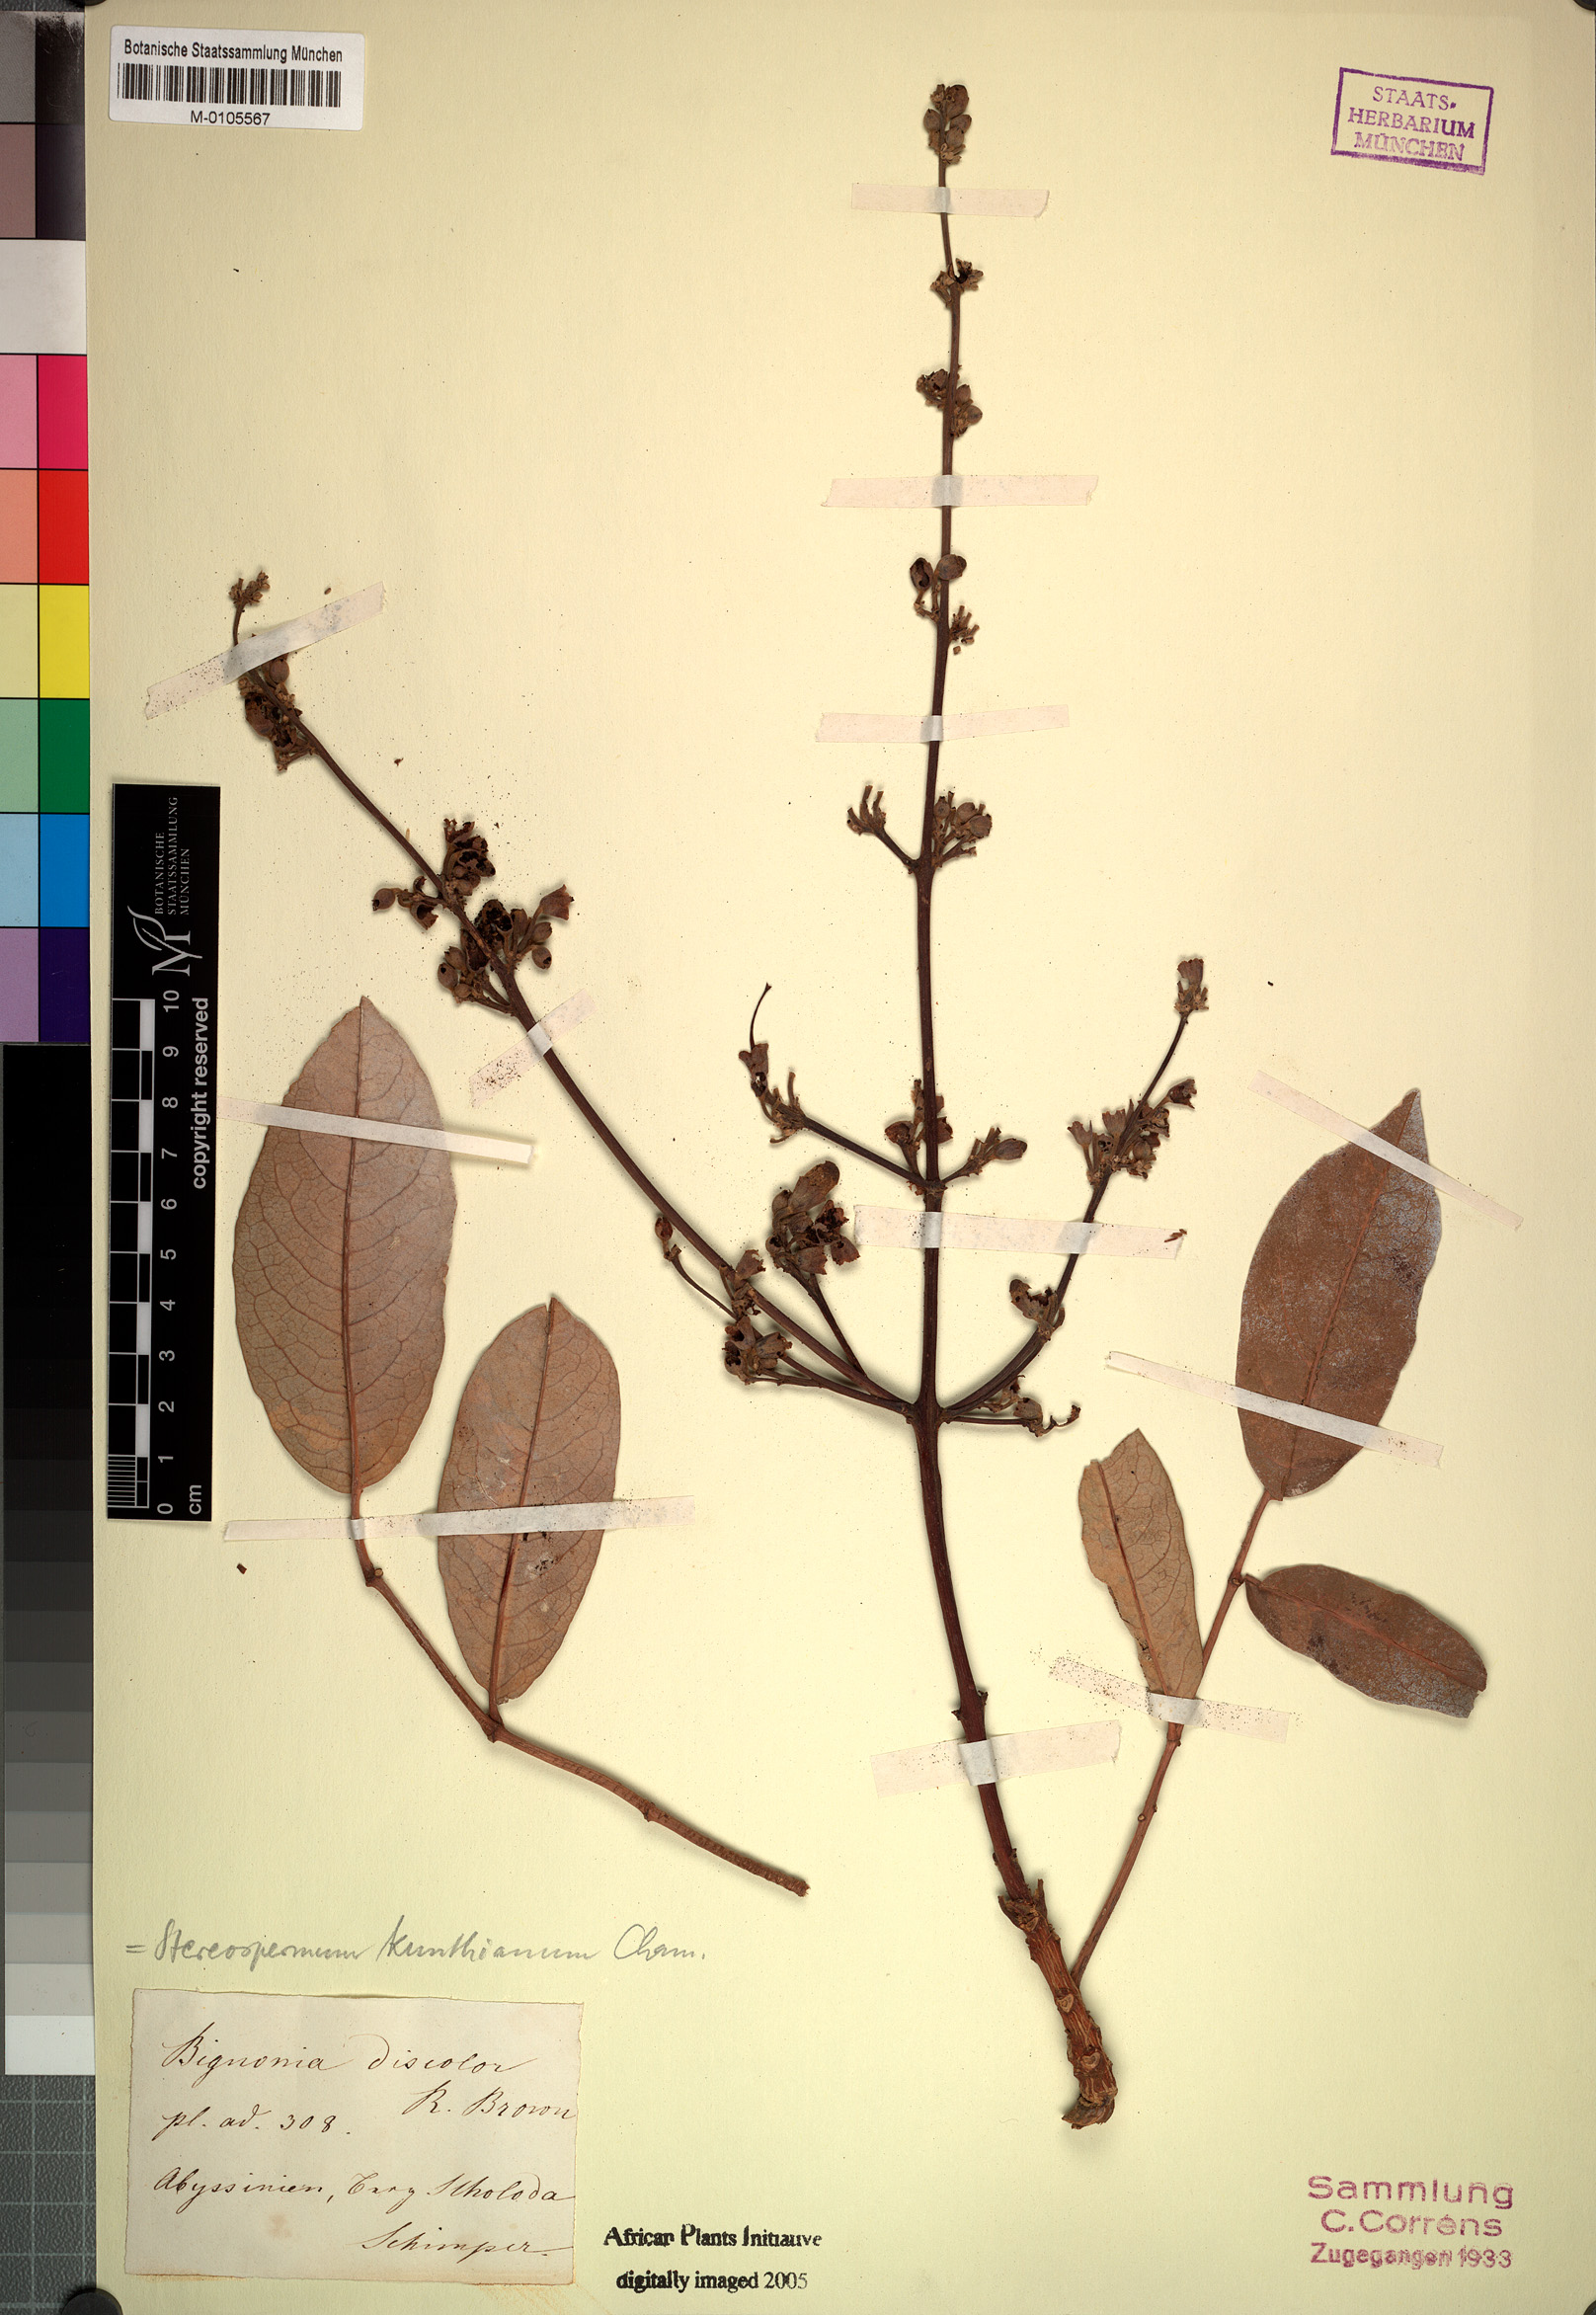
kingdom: Plantae
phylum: Tracheophyta
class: Magnoliopsida
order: Lamiales
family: Bignoniaceae
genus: Stereospermum
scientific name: Stereospermum kunthianum
